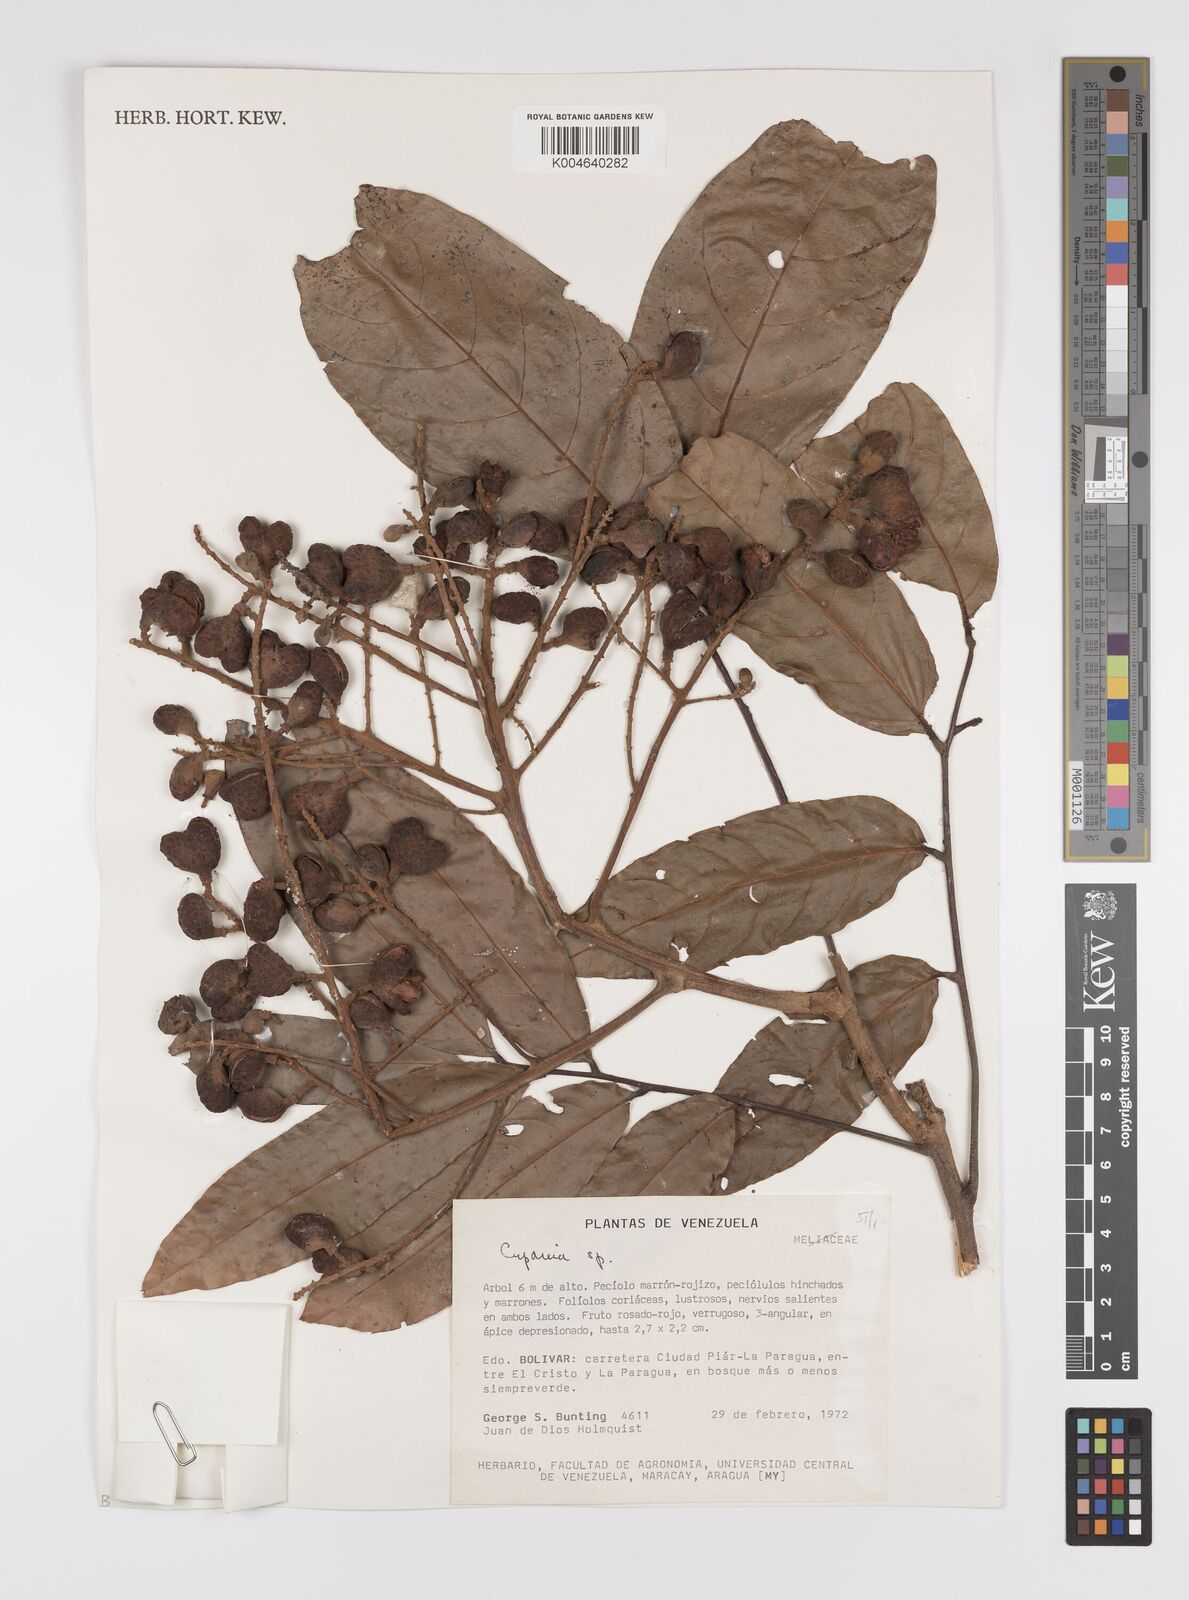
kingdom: Plantae
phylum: Tracheophyta
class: Magnoliopsida
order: Sapindales
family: Sapindaceae
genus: Cupania
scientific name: Cupania
